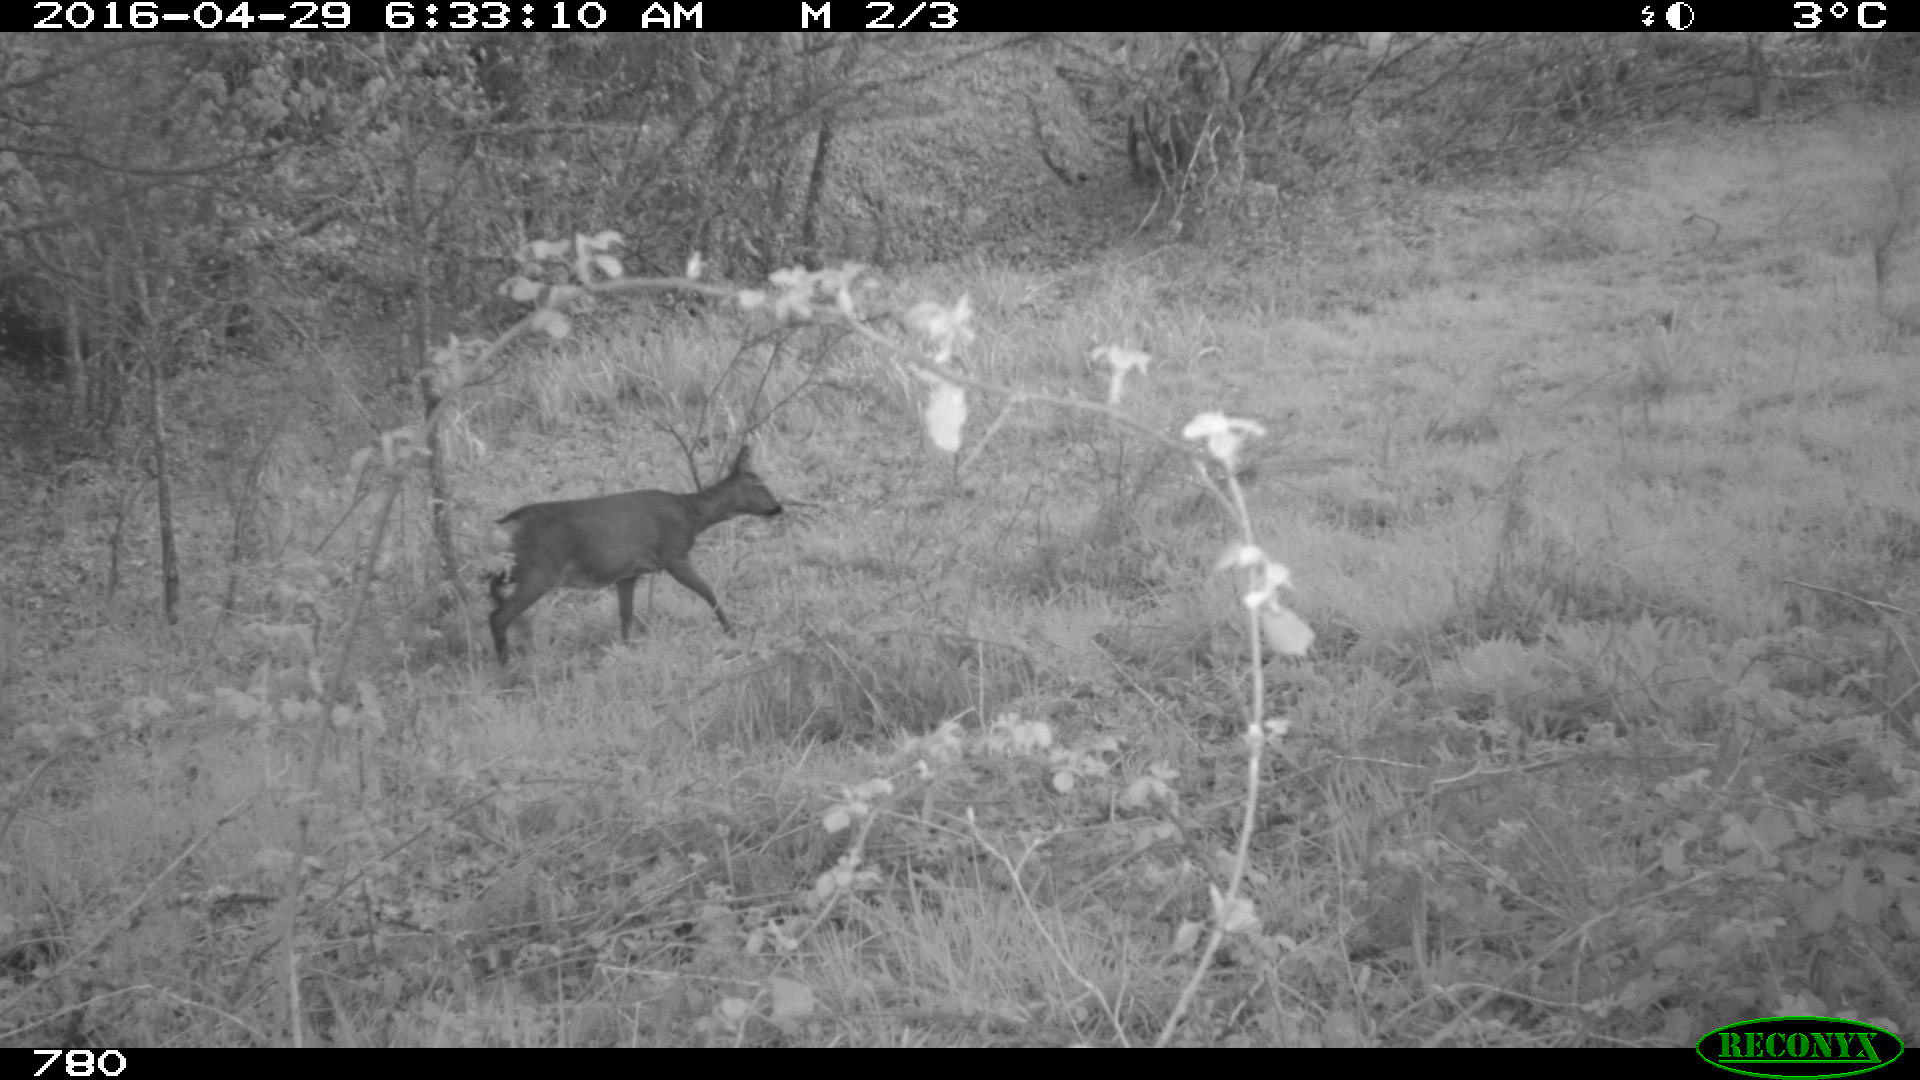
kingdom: Animalia
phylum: Chordata
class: Mammalia
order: Artiodactyla
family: Cervidae
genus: Capreolus
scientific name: Capreolus capreolus
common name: Western roe deer
